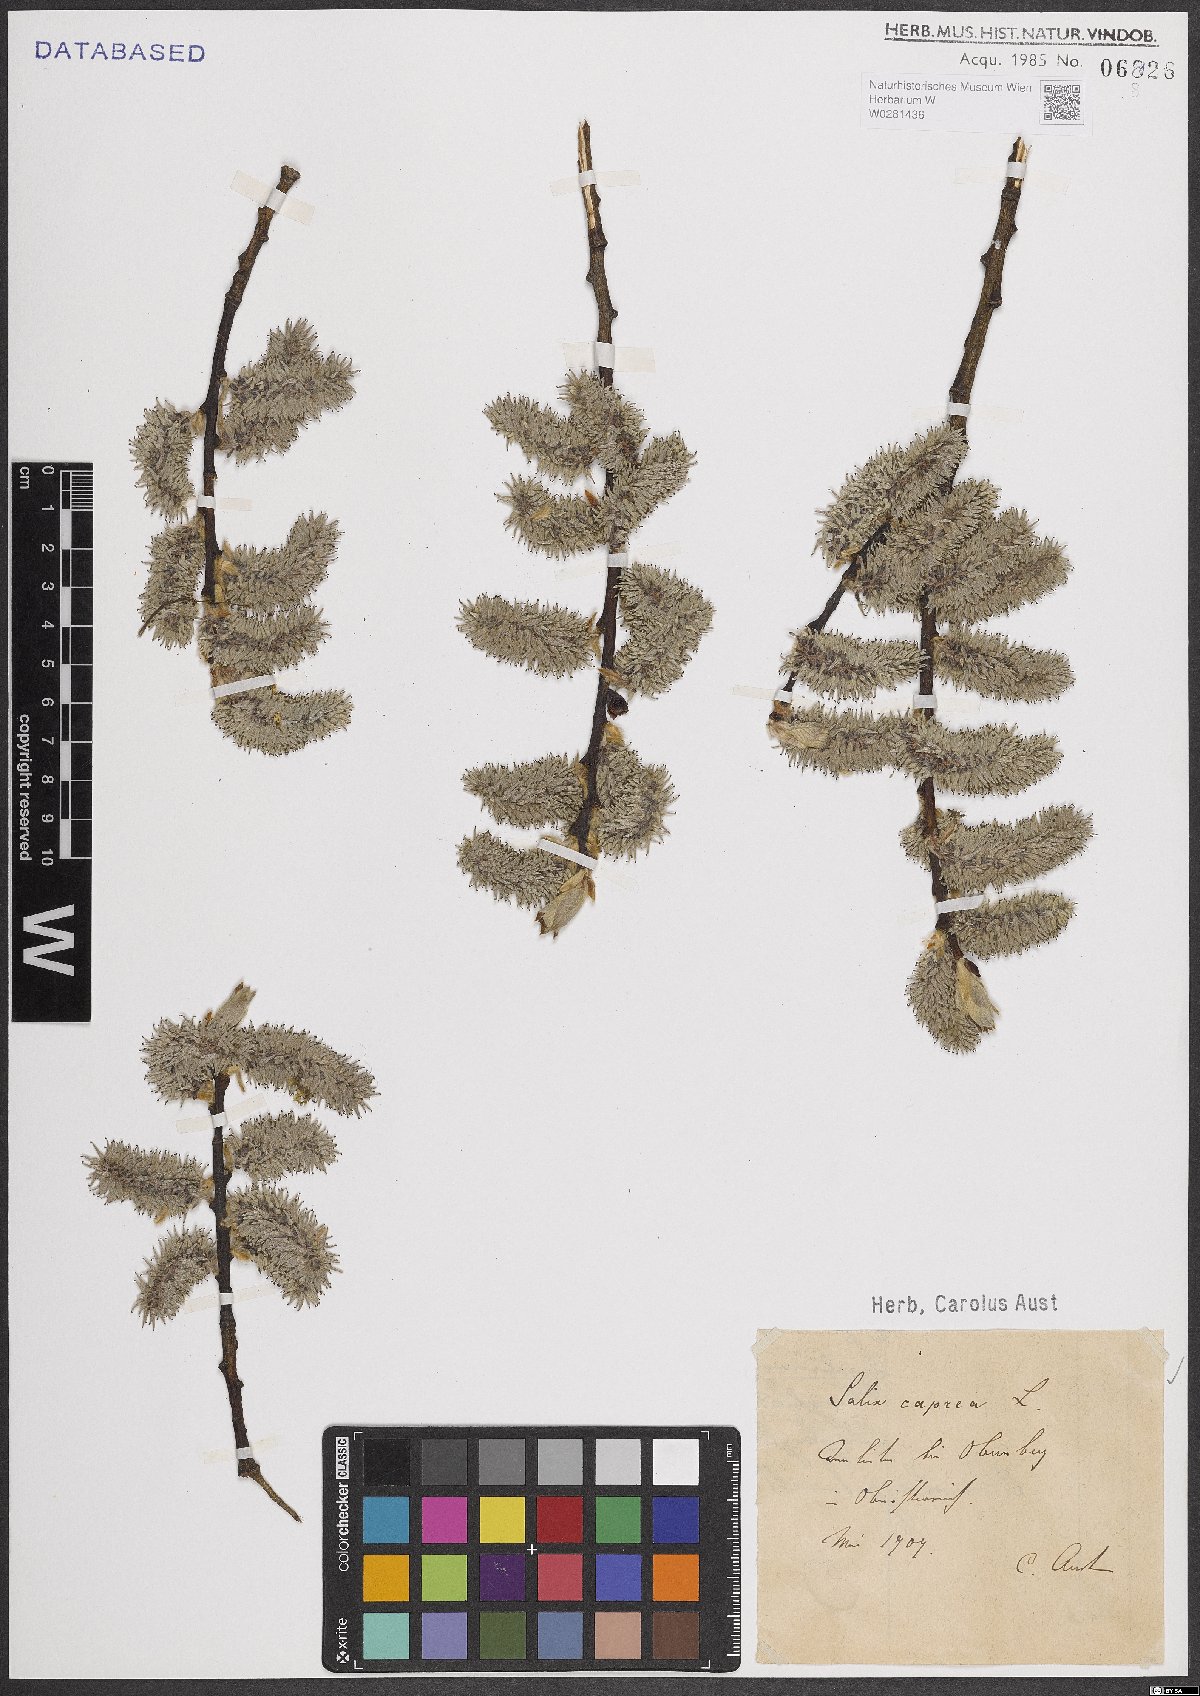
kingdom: Plantae
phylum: Tracheophyta
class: Magnoliopsida
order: Malpighiales
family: Salicaceae
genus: Salix
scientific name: Salix caprea
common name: Goat willow
